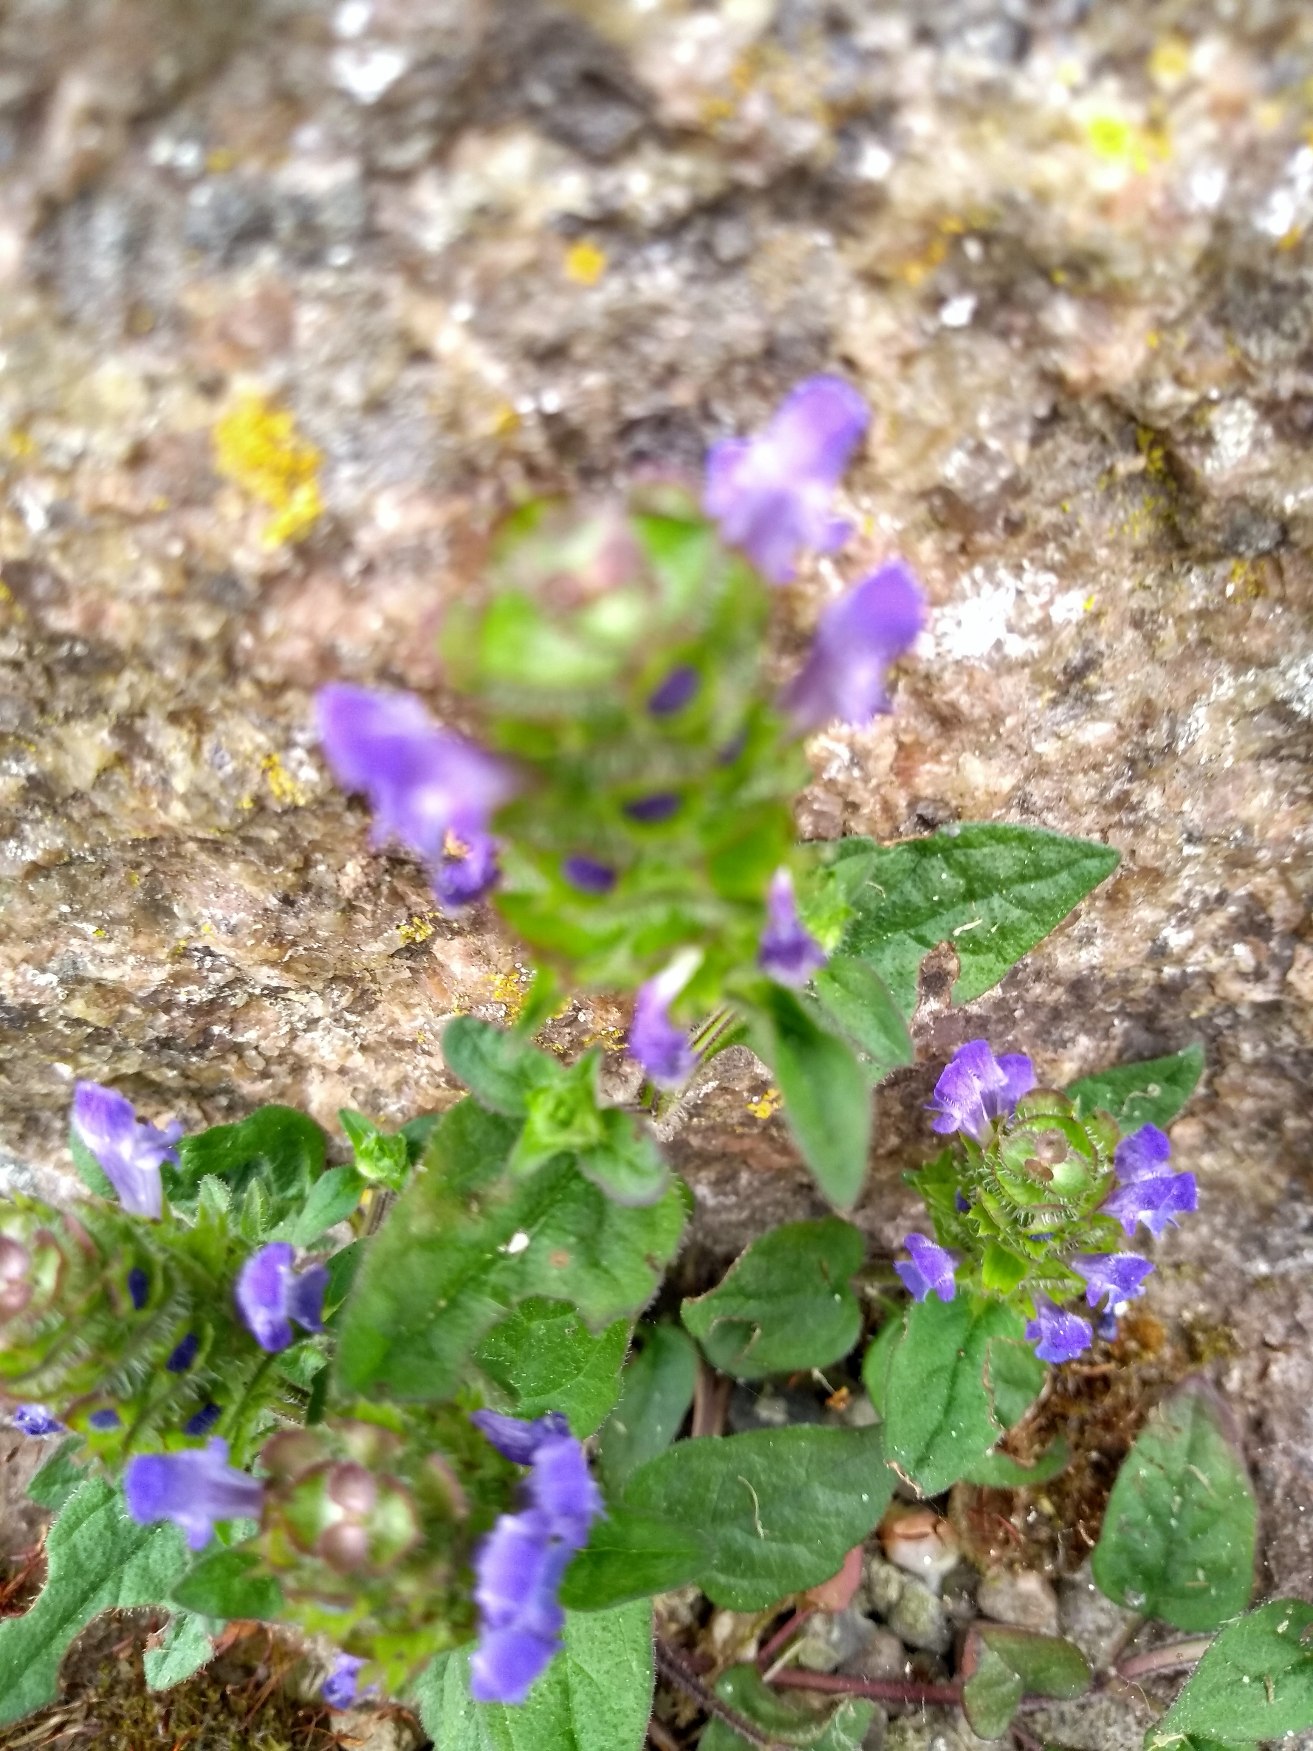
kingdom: Plantae
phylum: Tracheophyta
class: Magnoliopsida
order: Lamiales
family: Lamiaceae
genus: Prunella
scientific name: Prunella vulgaris
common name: Almindelig brunelle
